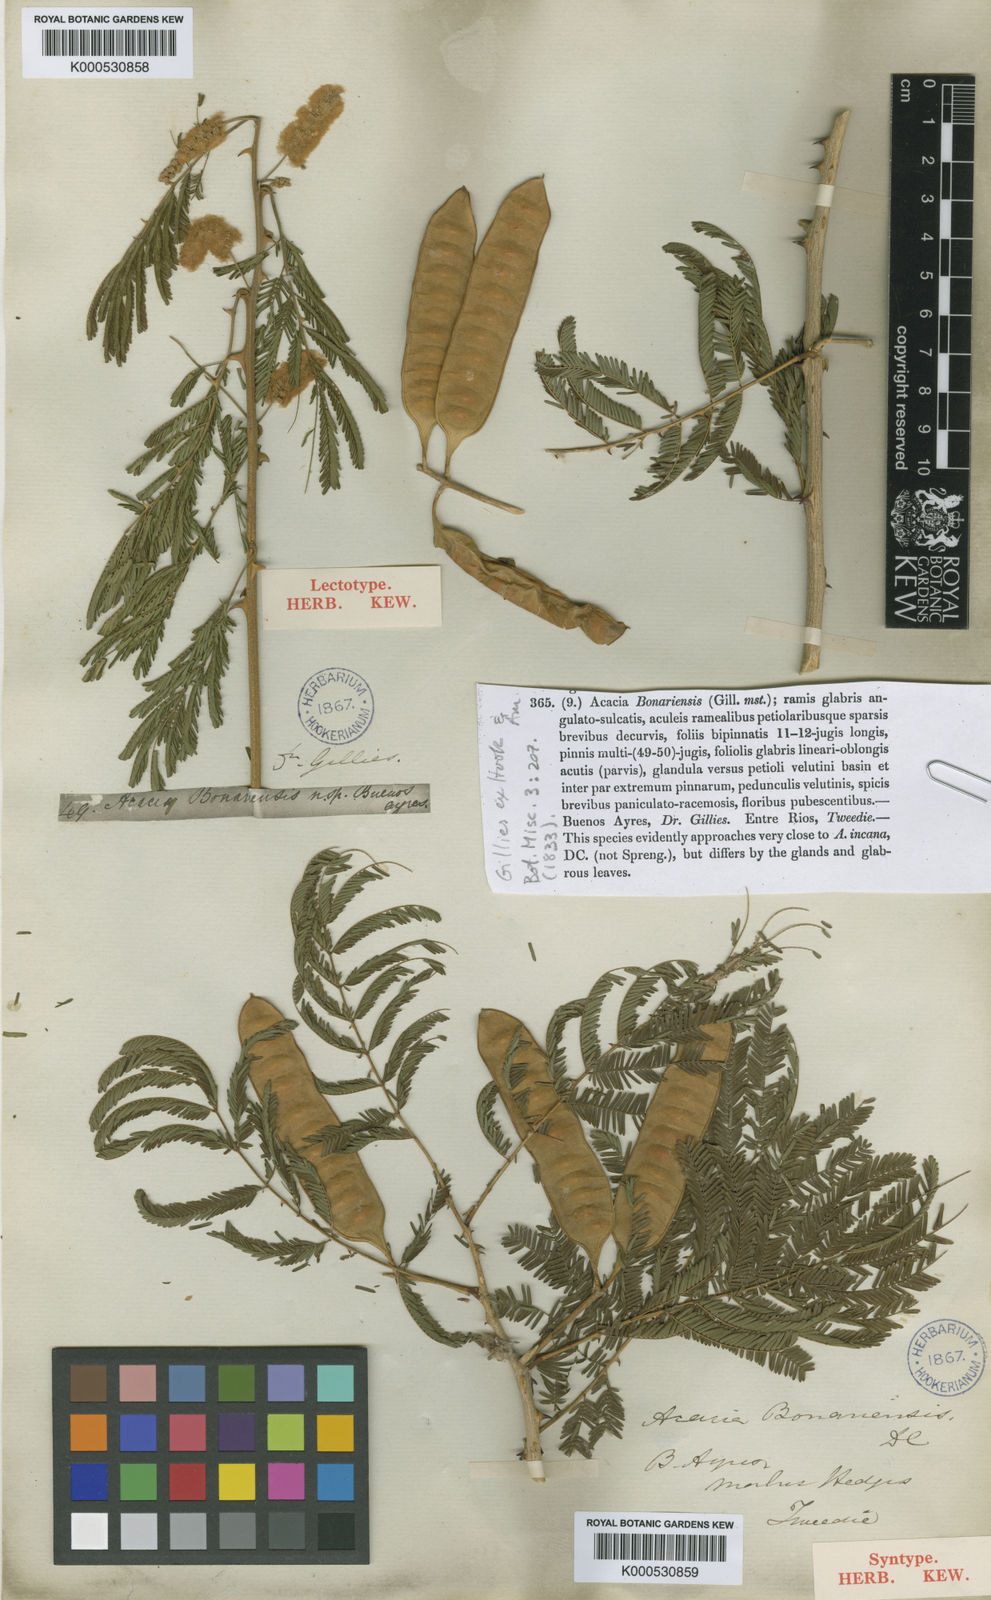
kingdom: Plantae
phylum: Tracheophyta
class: Magnoliopsida
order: Fabales
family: Fabaceae
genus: Senegalia
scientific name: Senegalia bonariensis
